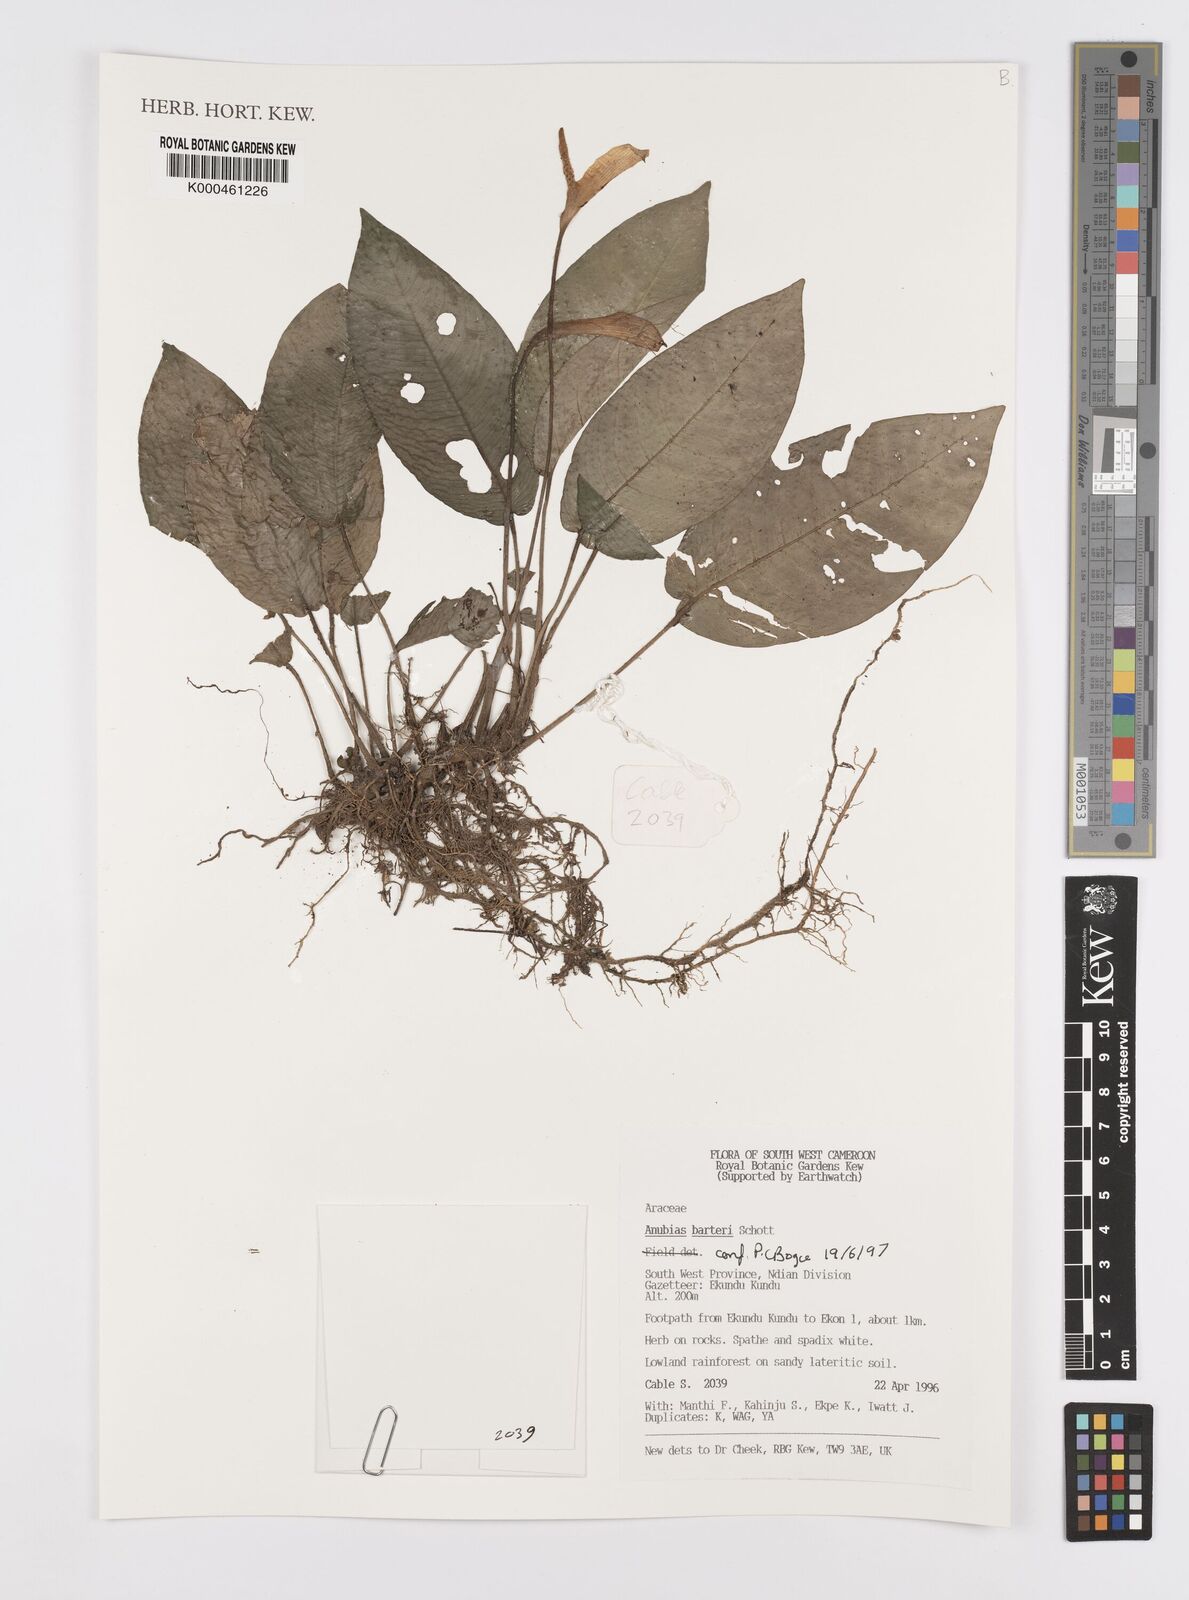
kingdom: Plantae
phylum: Tracheophyta
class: Liliopsida
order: Alismatales
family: Araceae
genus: Anubias
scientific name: Anubias barteri
